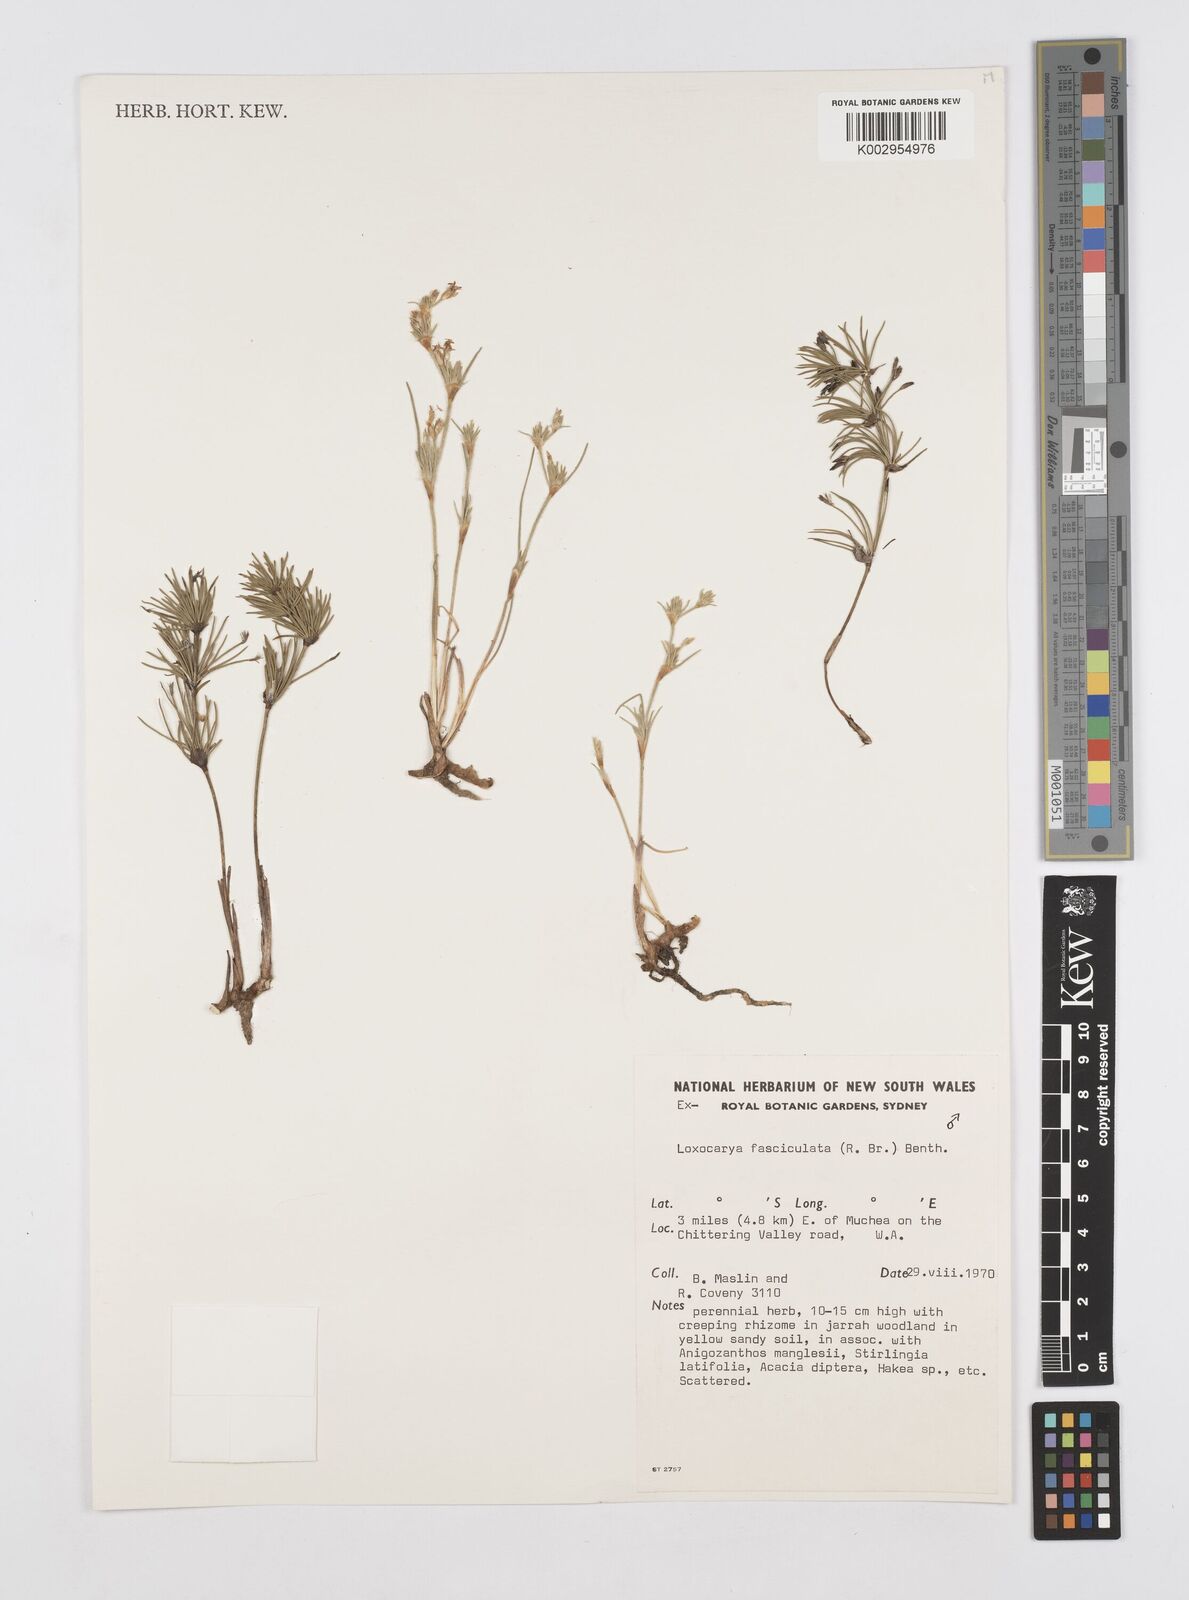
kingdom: Plantae
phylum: Tracheophyta
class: Liliopsida
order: Poales
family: Restionaceae
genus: Desmocladus
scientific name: Desmocladus fasciculatus
